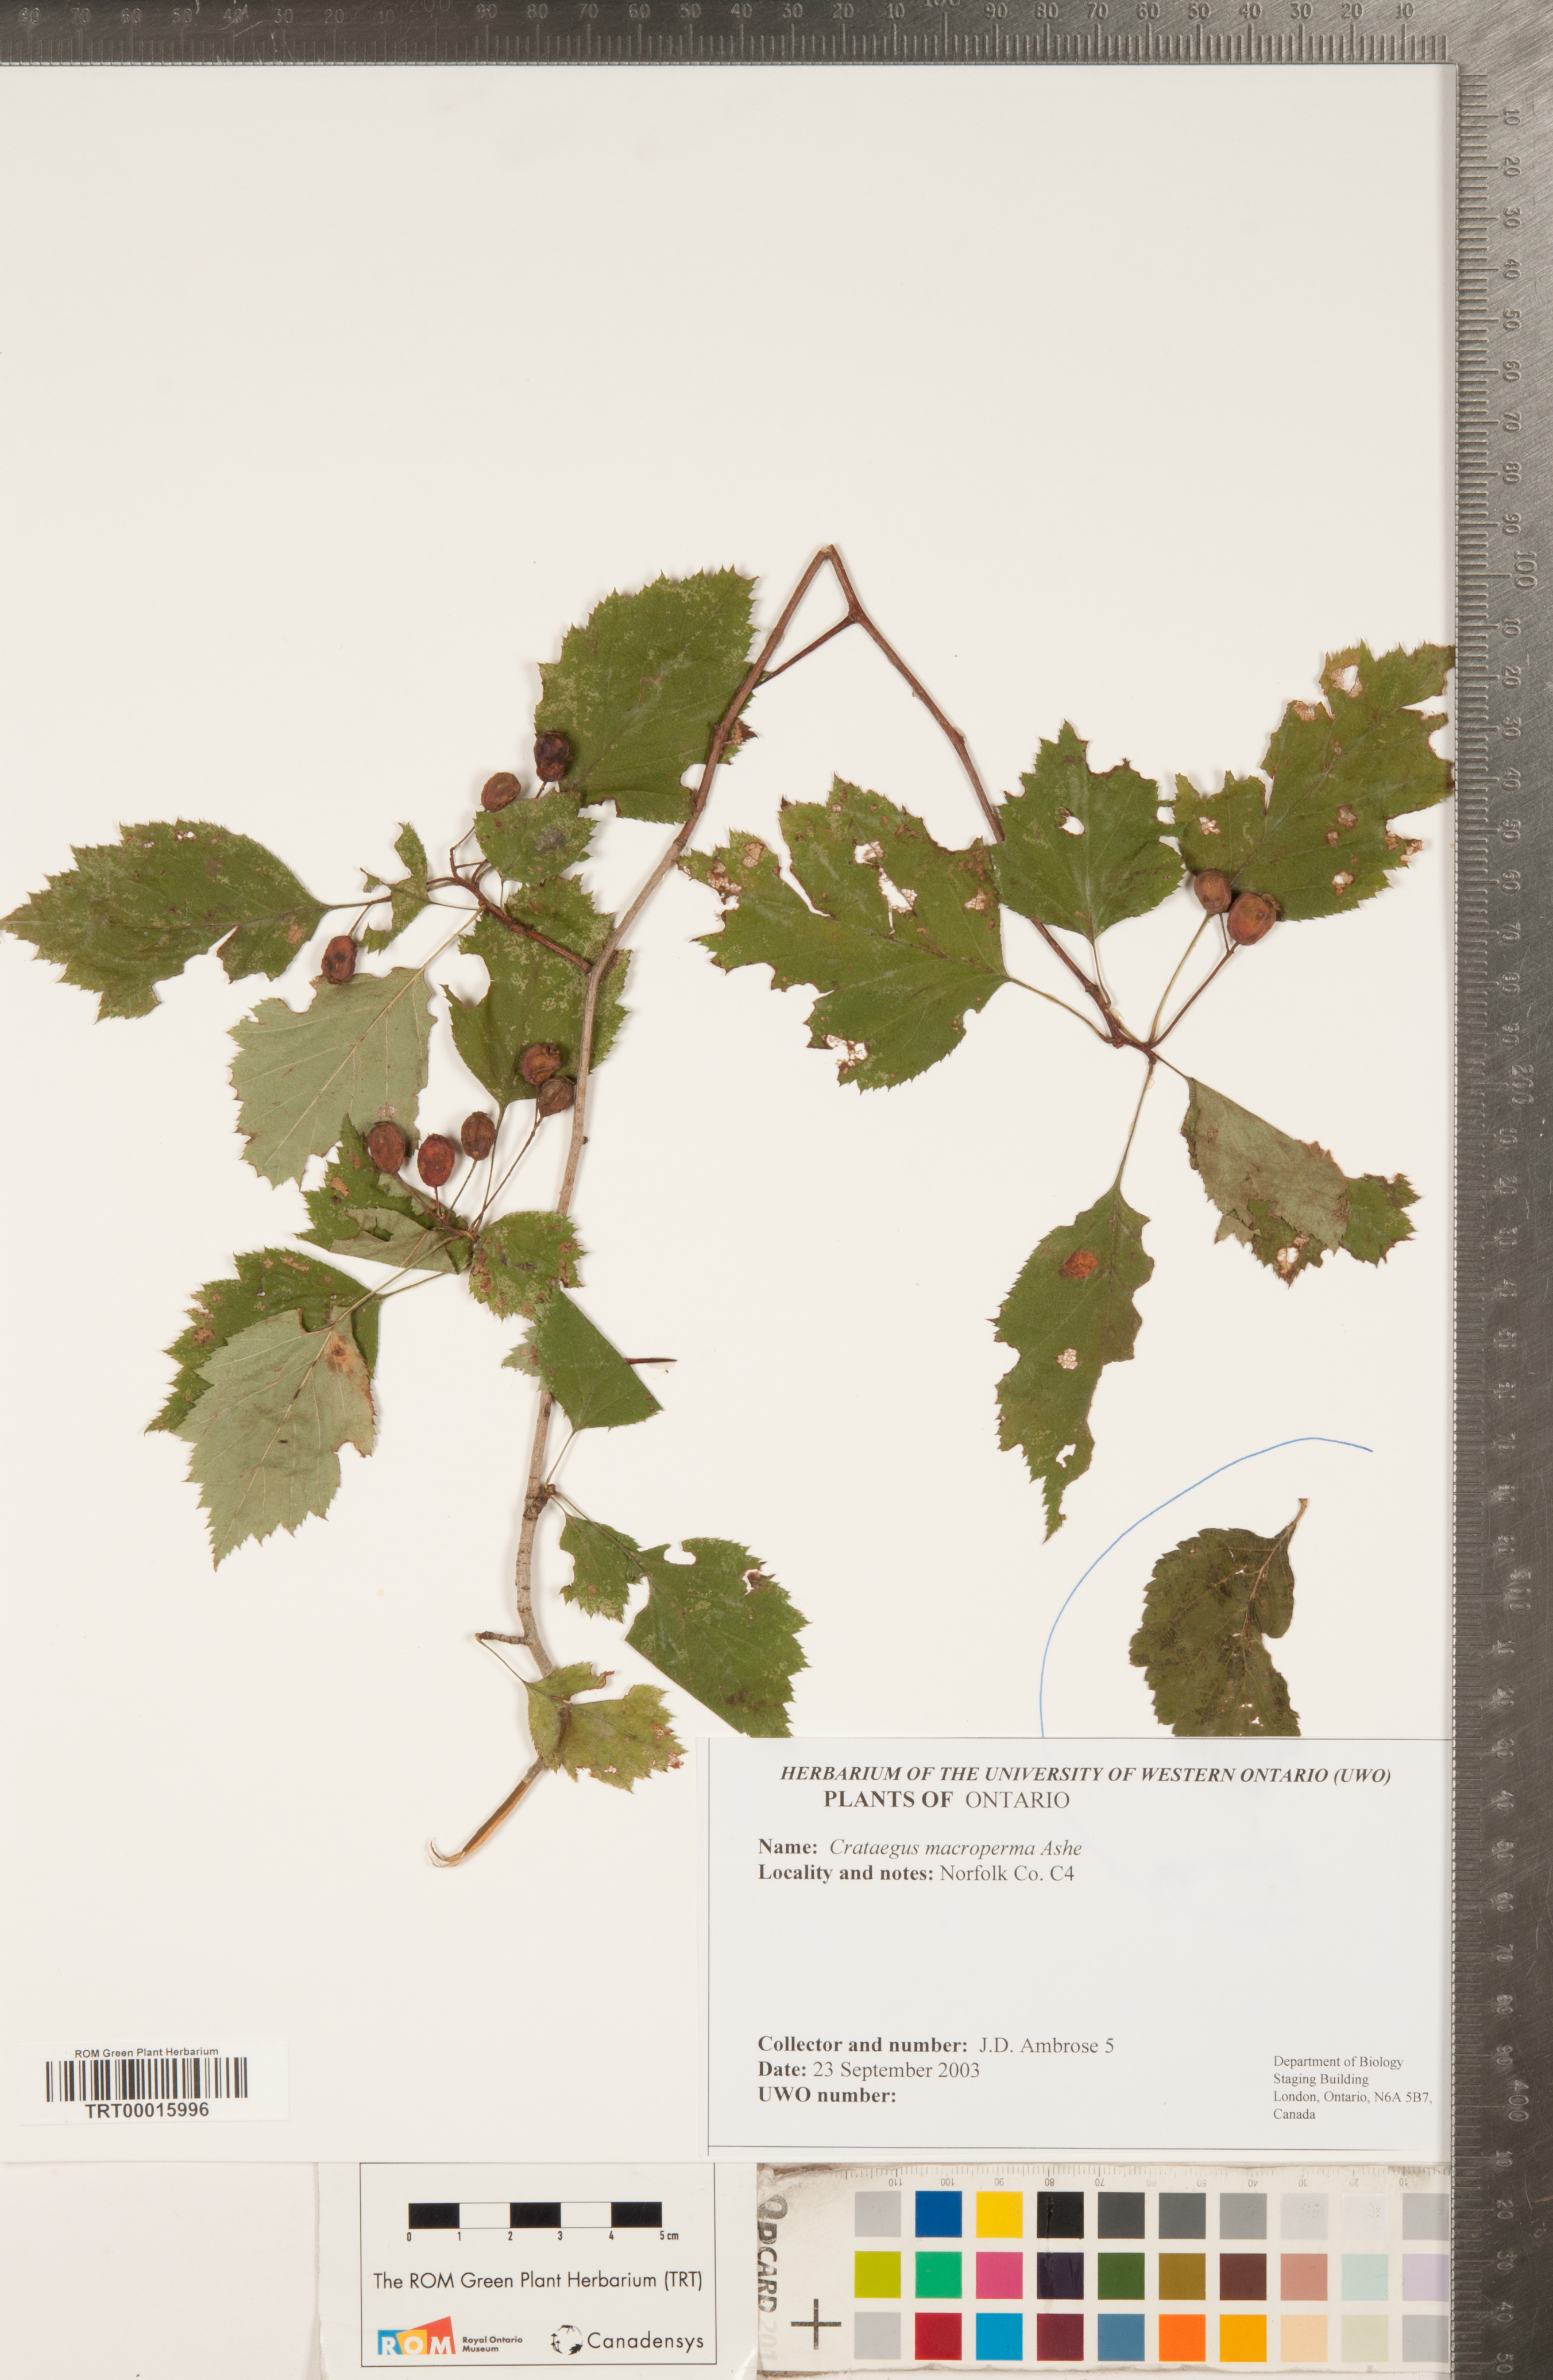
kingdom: Plantae
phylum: Tracheophyta
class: Magnoliopsida
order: Rosales
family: Rosaceae
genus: Crataegus
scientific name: Crataegus macrosperma
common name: Variable hawthorn
